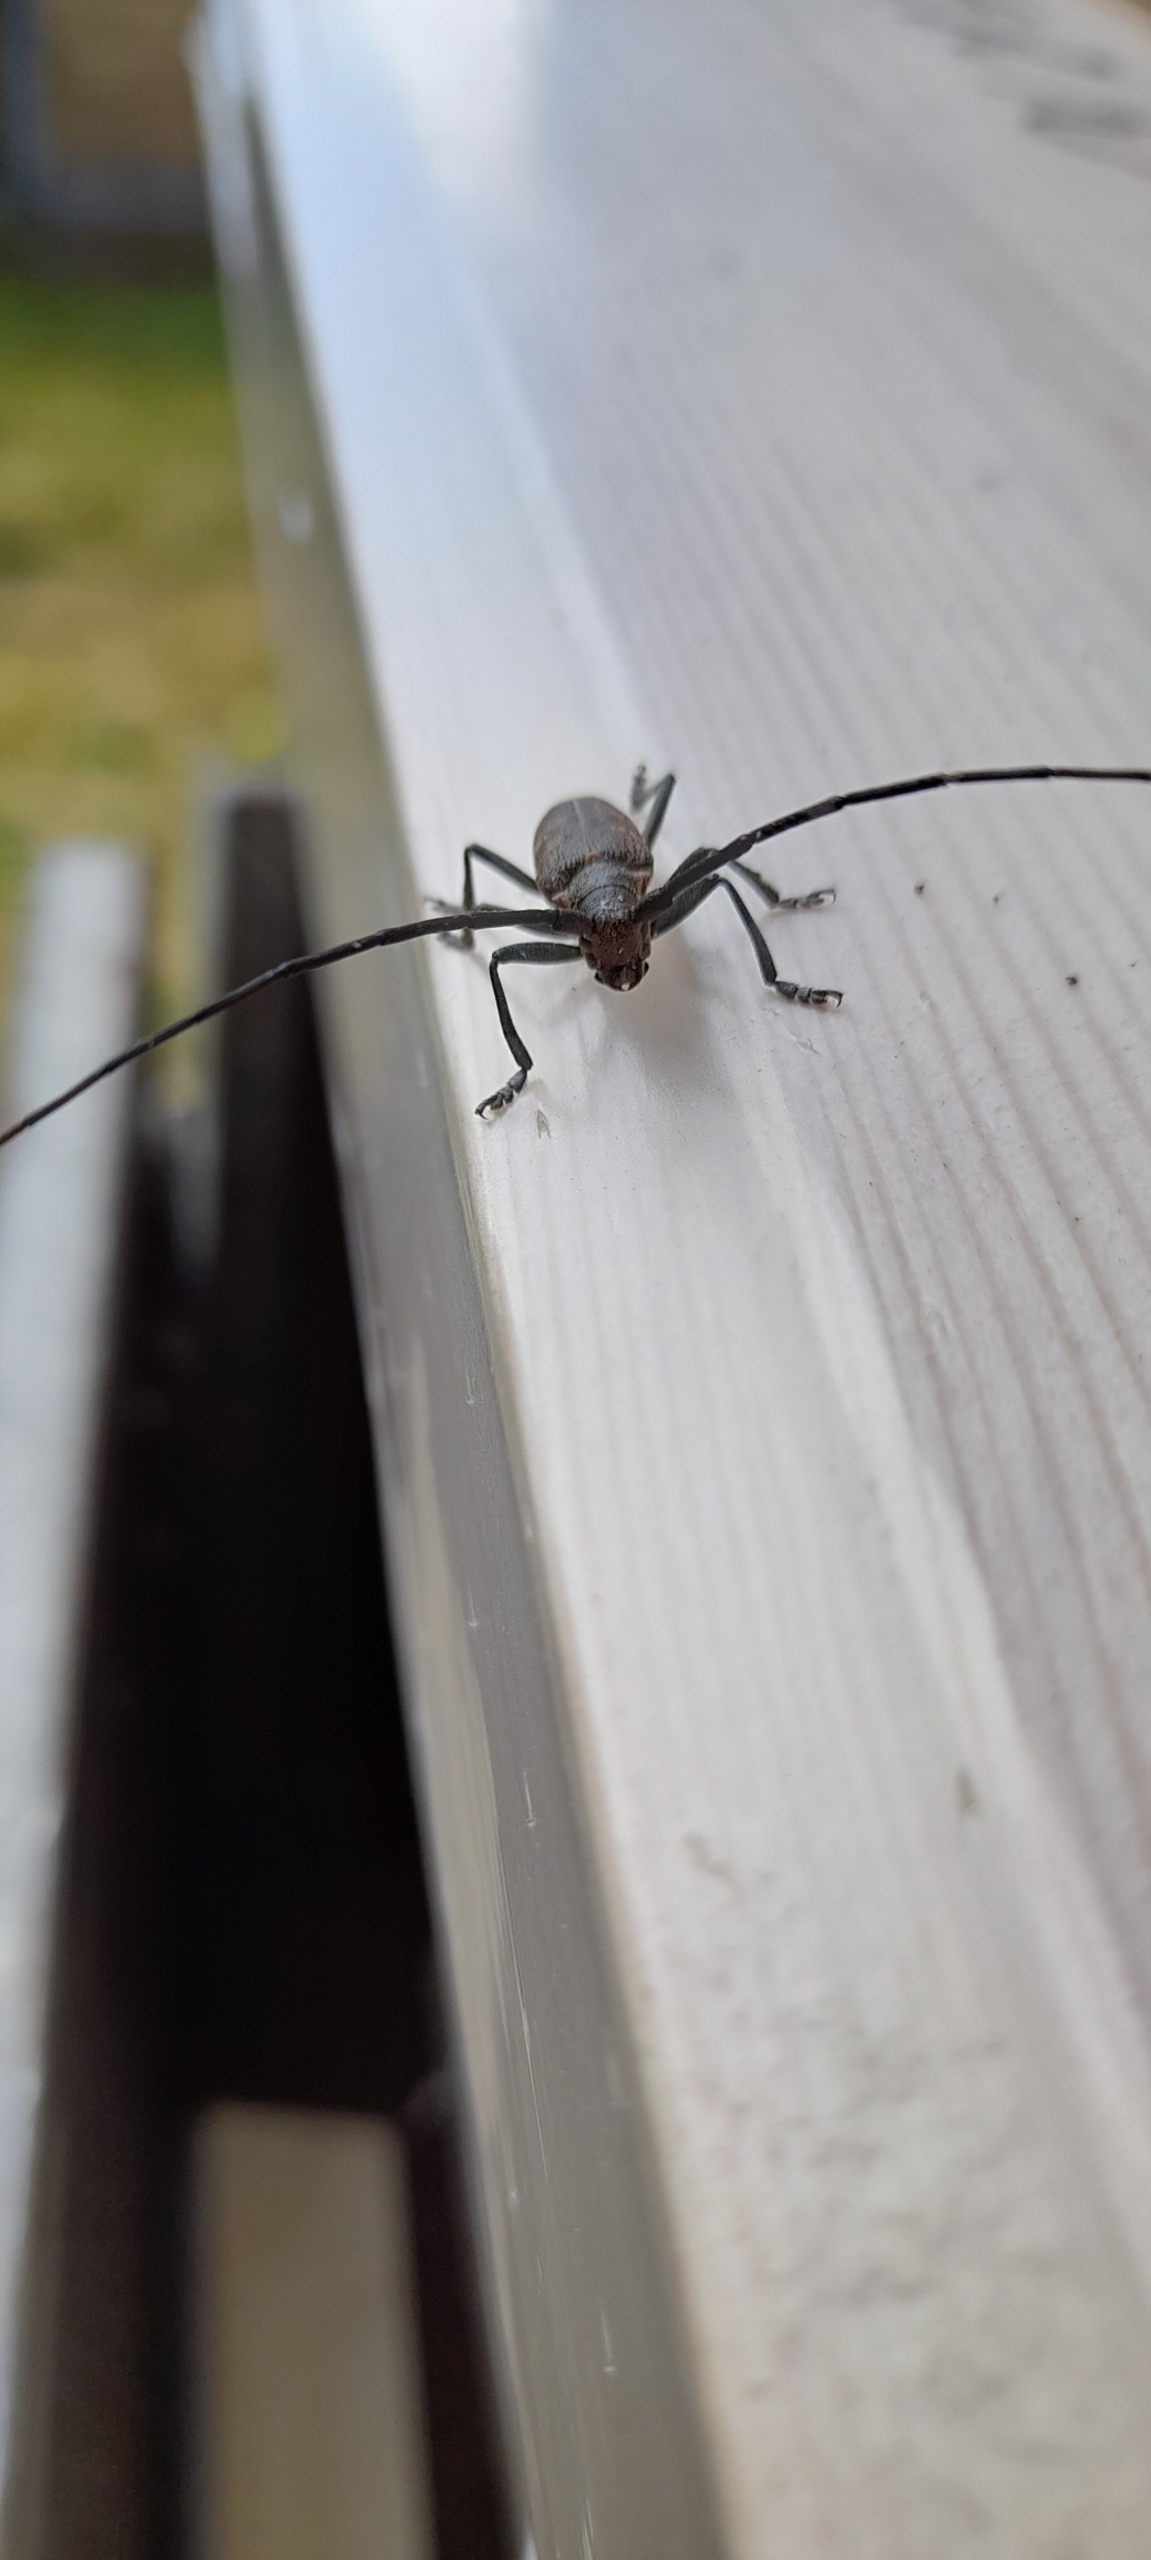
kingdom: Animalia
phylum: Arthropoda
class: Insecta
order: Coleoptera
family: Cerambycidae
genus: Monochamus
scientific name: Monochamus
